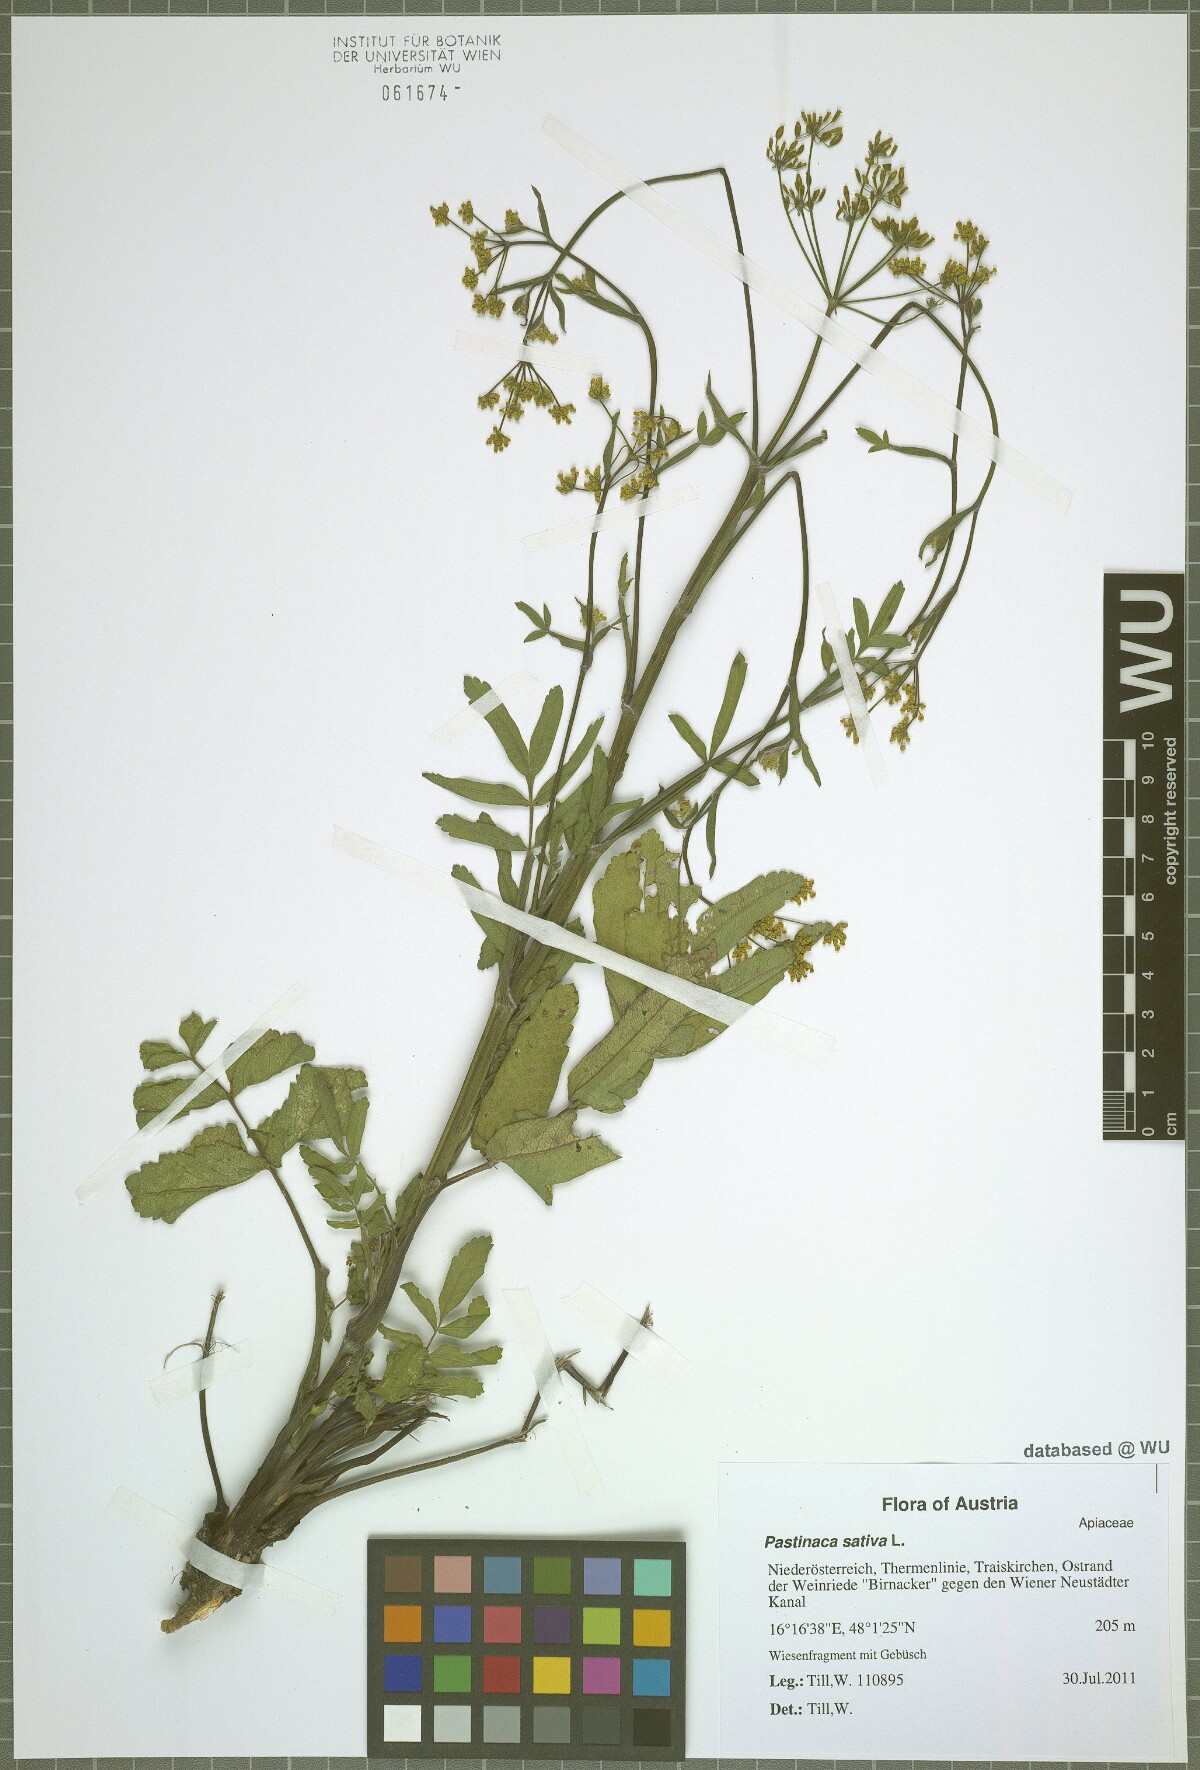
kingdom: Plantae
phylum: Tracheophyta
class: Magnoliopsida
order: Apiales
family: Apiaceae
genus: Pastinaca
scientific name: Pastinaca sativa
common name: Wild parsnip
